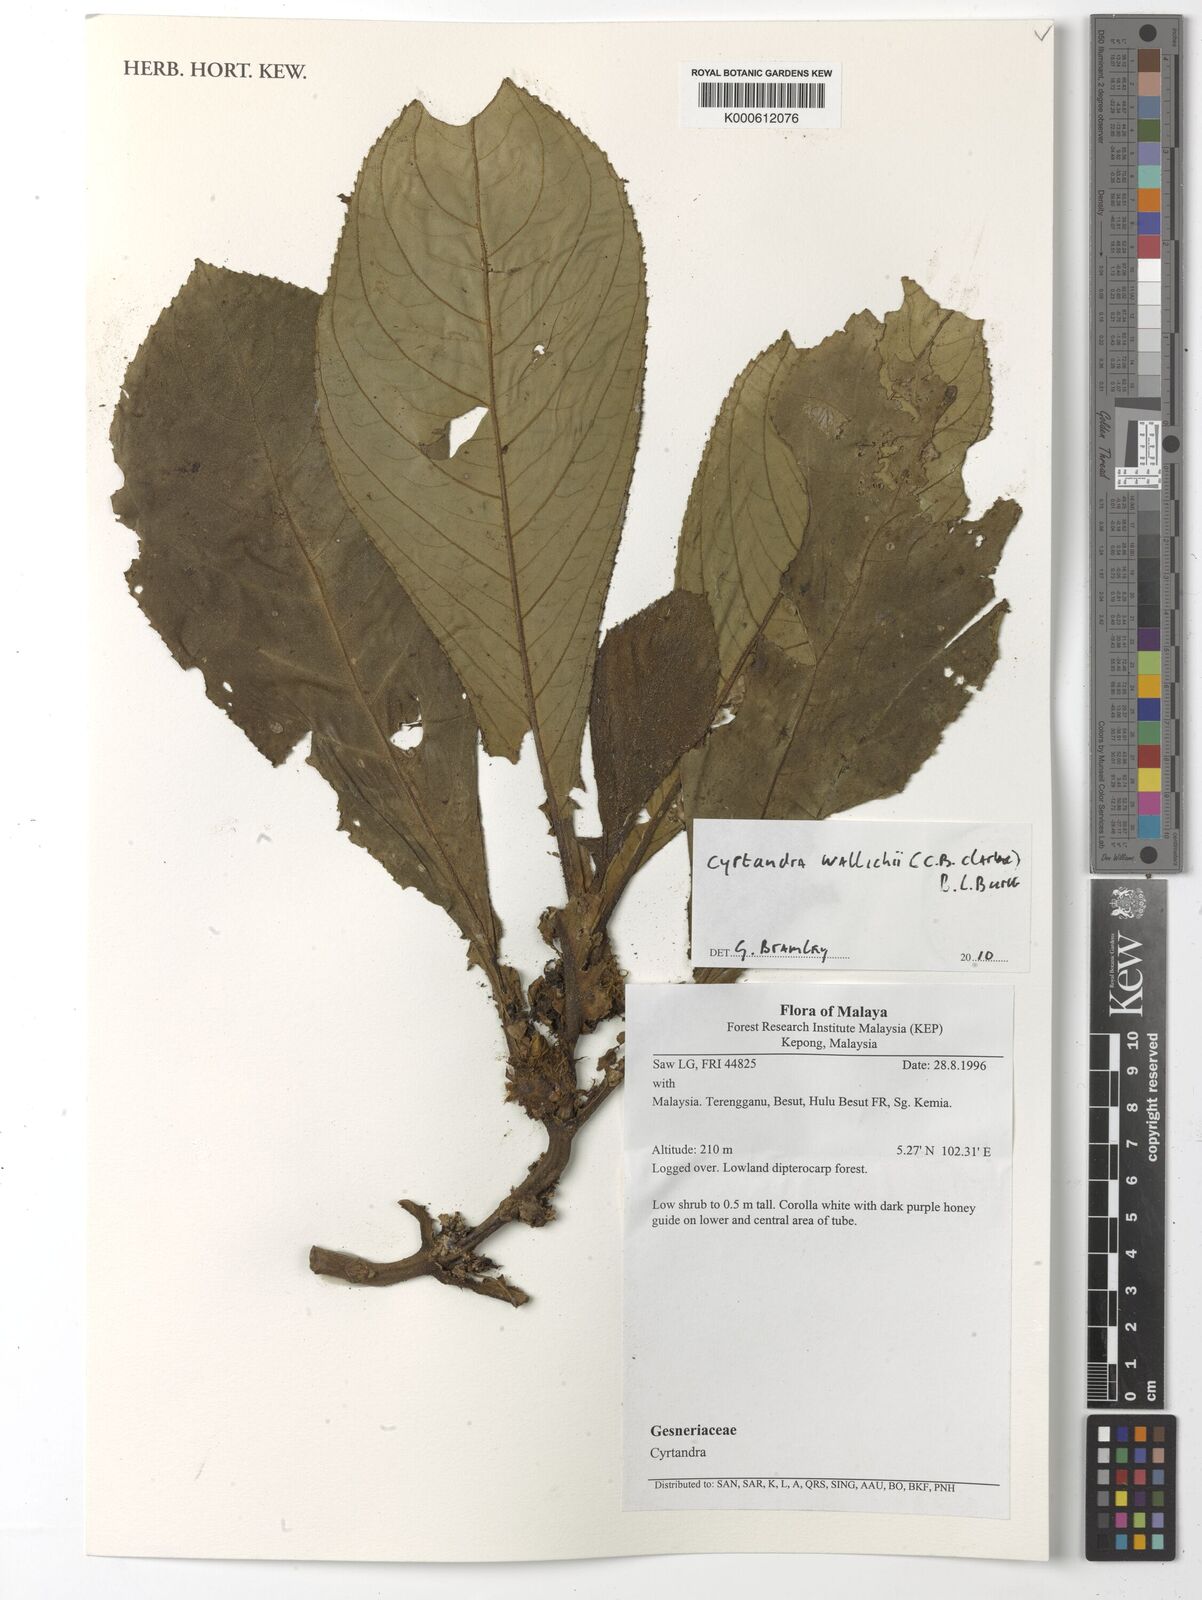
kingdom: Plantae
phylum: Tracheophyta
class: Magnoliopsida
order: Lamiales
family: Gesneriaceae
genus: Cyrtandra
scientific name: Cyrtandra wallichii
